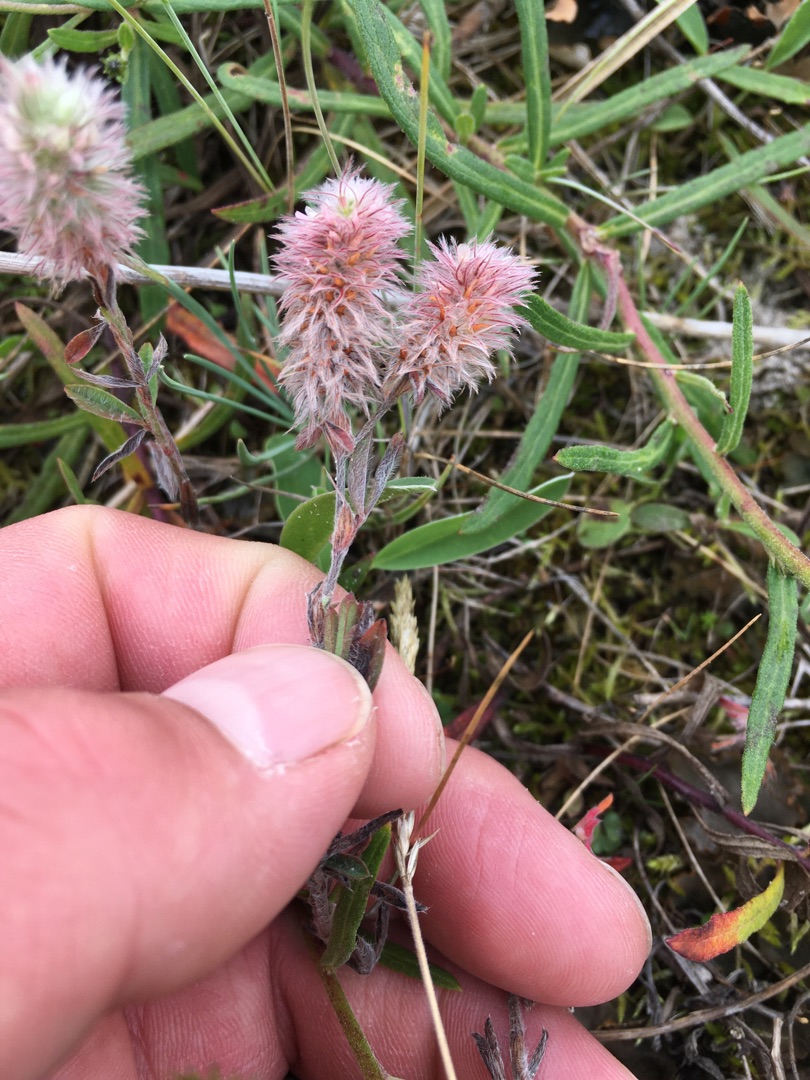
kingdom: Plantae
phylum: Tracheophyta
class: Magnoliopsida
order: Fabales
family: Fabaceae
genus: Trifolium
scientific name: Trifolium arvense
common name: Hare-kløver
